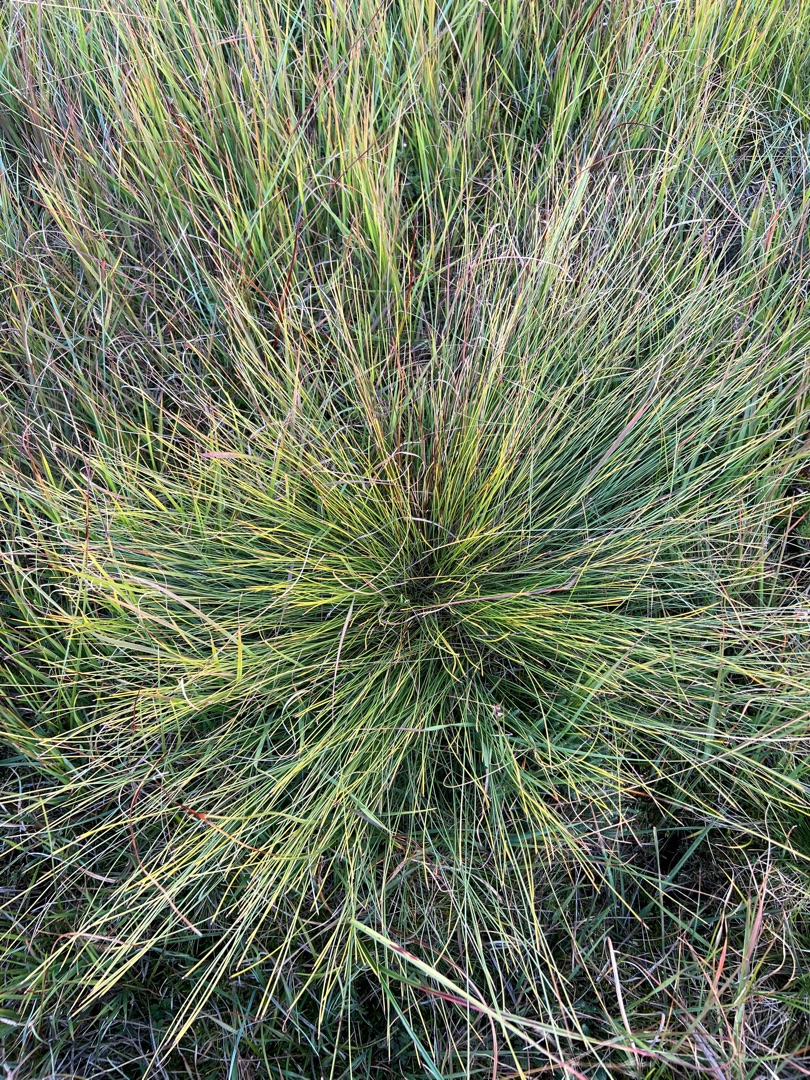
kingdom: Plantae
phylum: Tracheophyta
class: Liliopsida
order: Poales
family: Cyperaceae
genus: Trichophorum
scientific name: Trichophorum cespitosum
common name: Tuekogleaks
